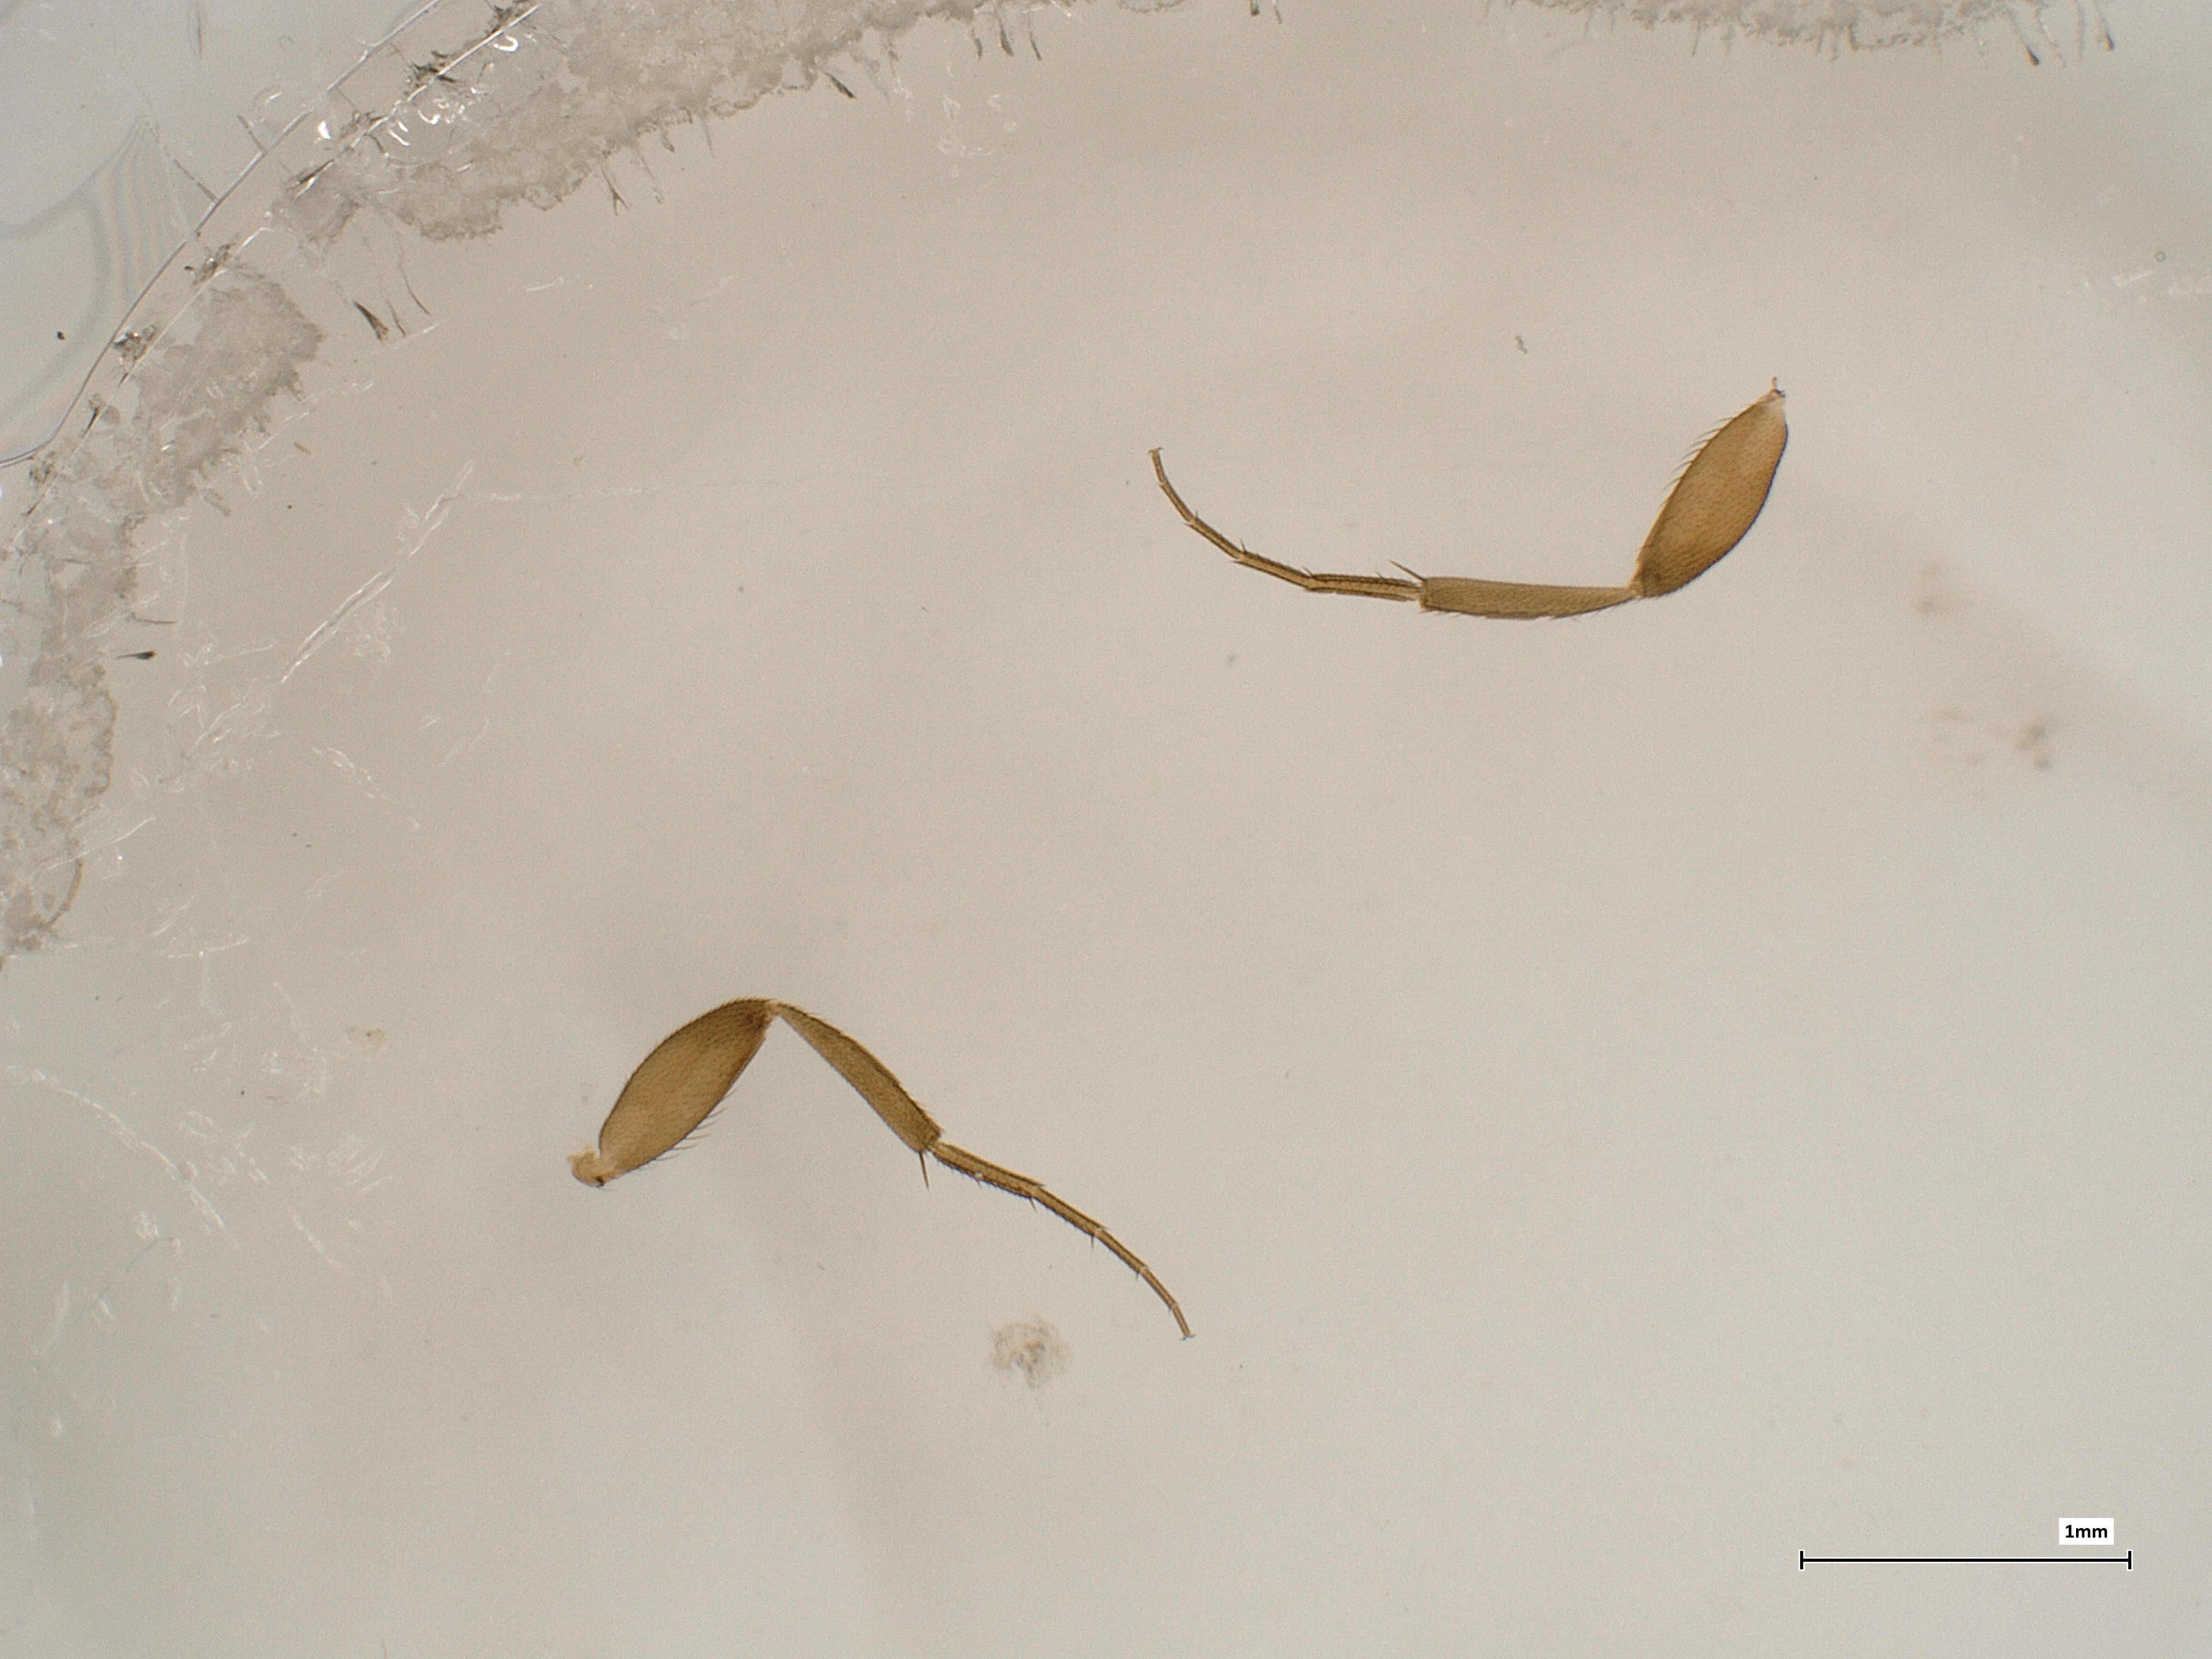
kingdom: Animalia
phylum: Arthropoda
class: Insecta
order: Diptera
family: Phoridae
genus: Megaselia
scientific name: Megaselia emarginata
